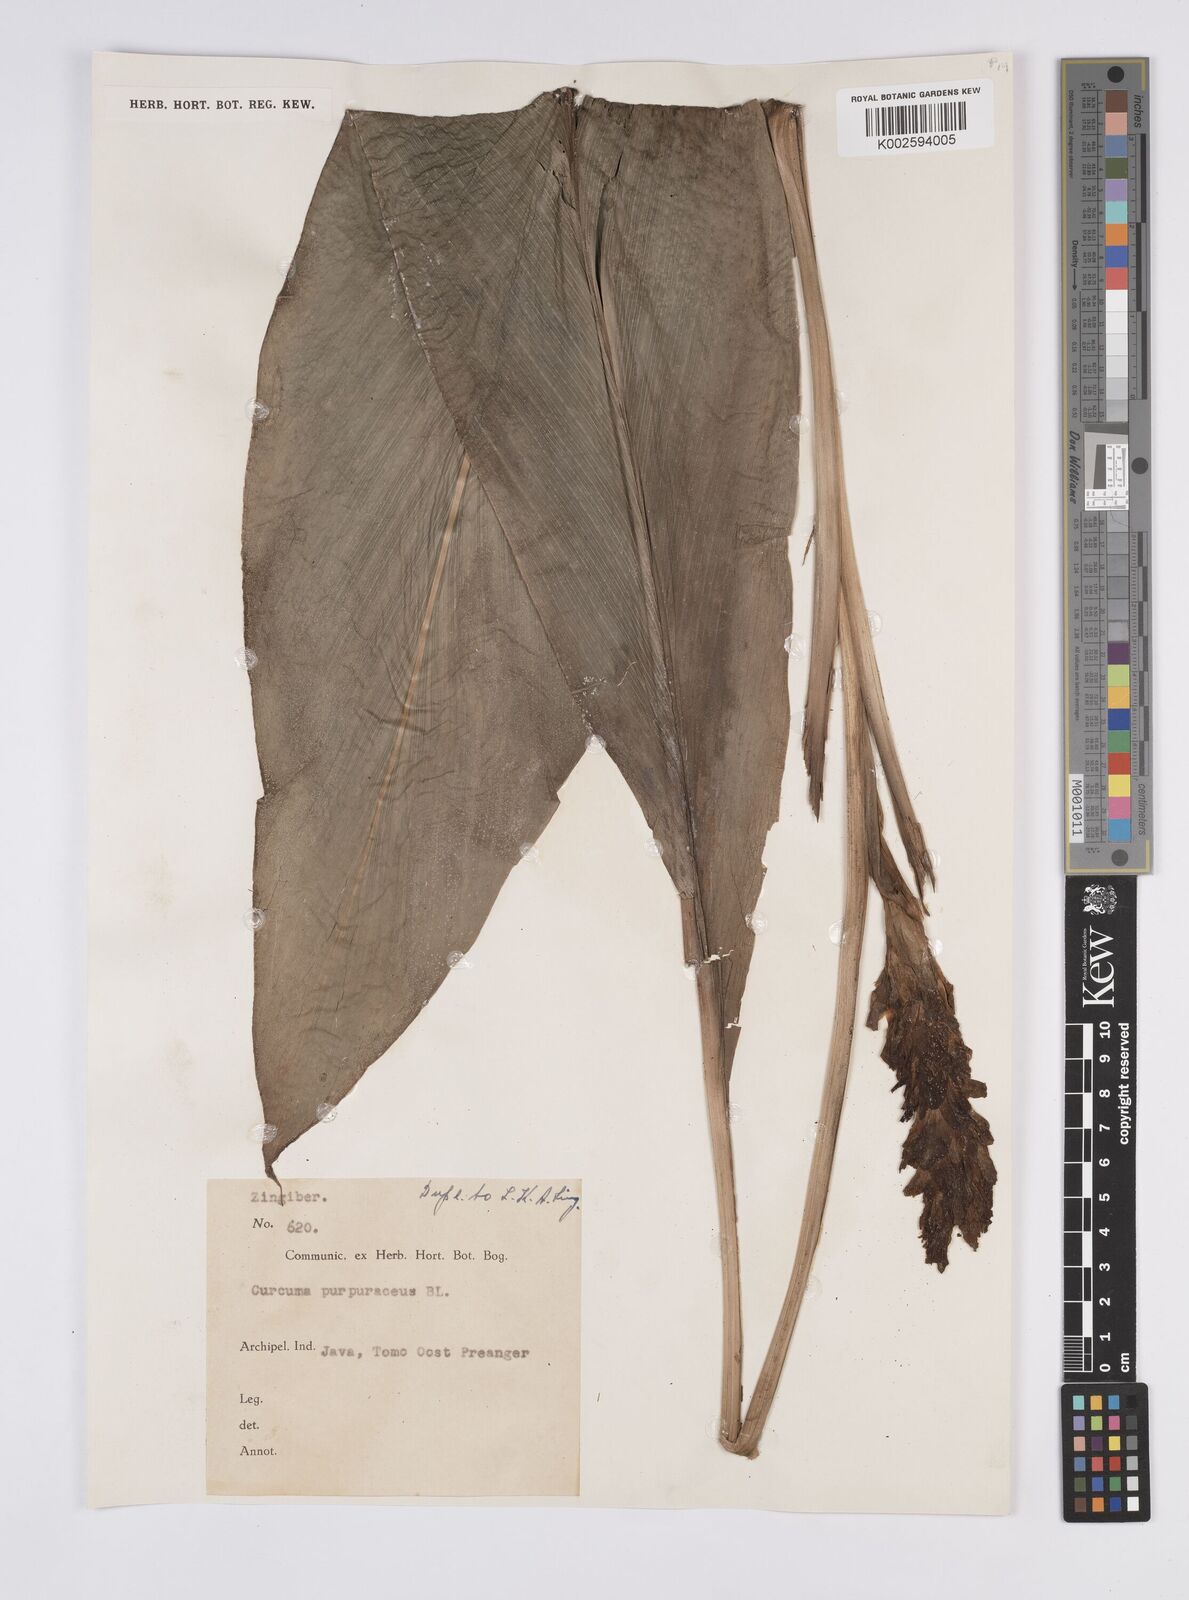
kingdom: Plantae
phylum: Tracheophyta
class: Liliopsida
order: Zingiberales
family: Zingiberaceae
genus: Curcuma
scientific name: Curcuma purpurascens
